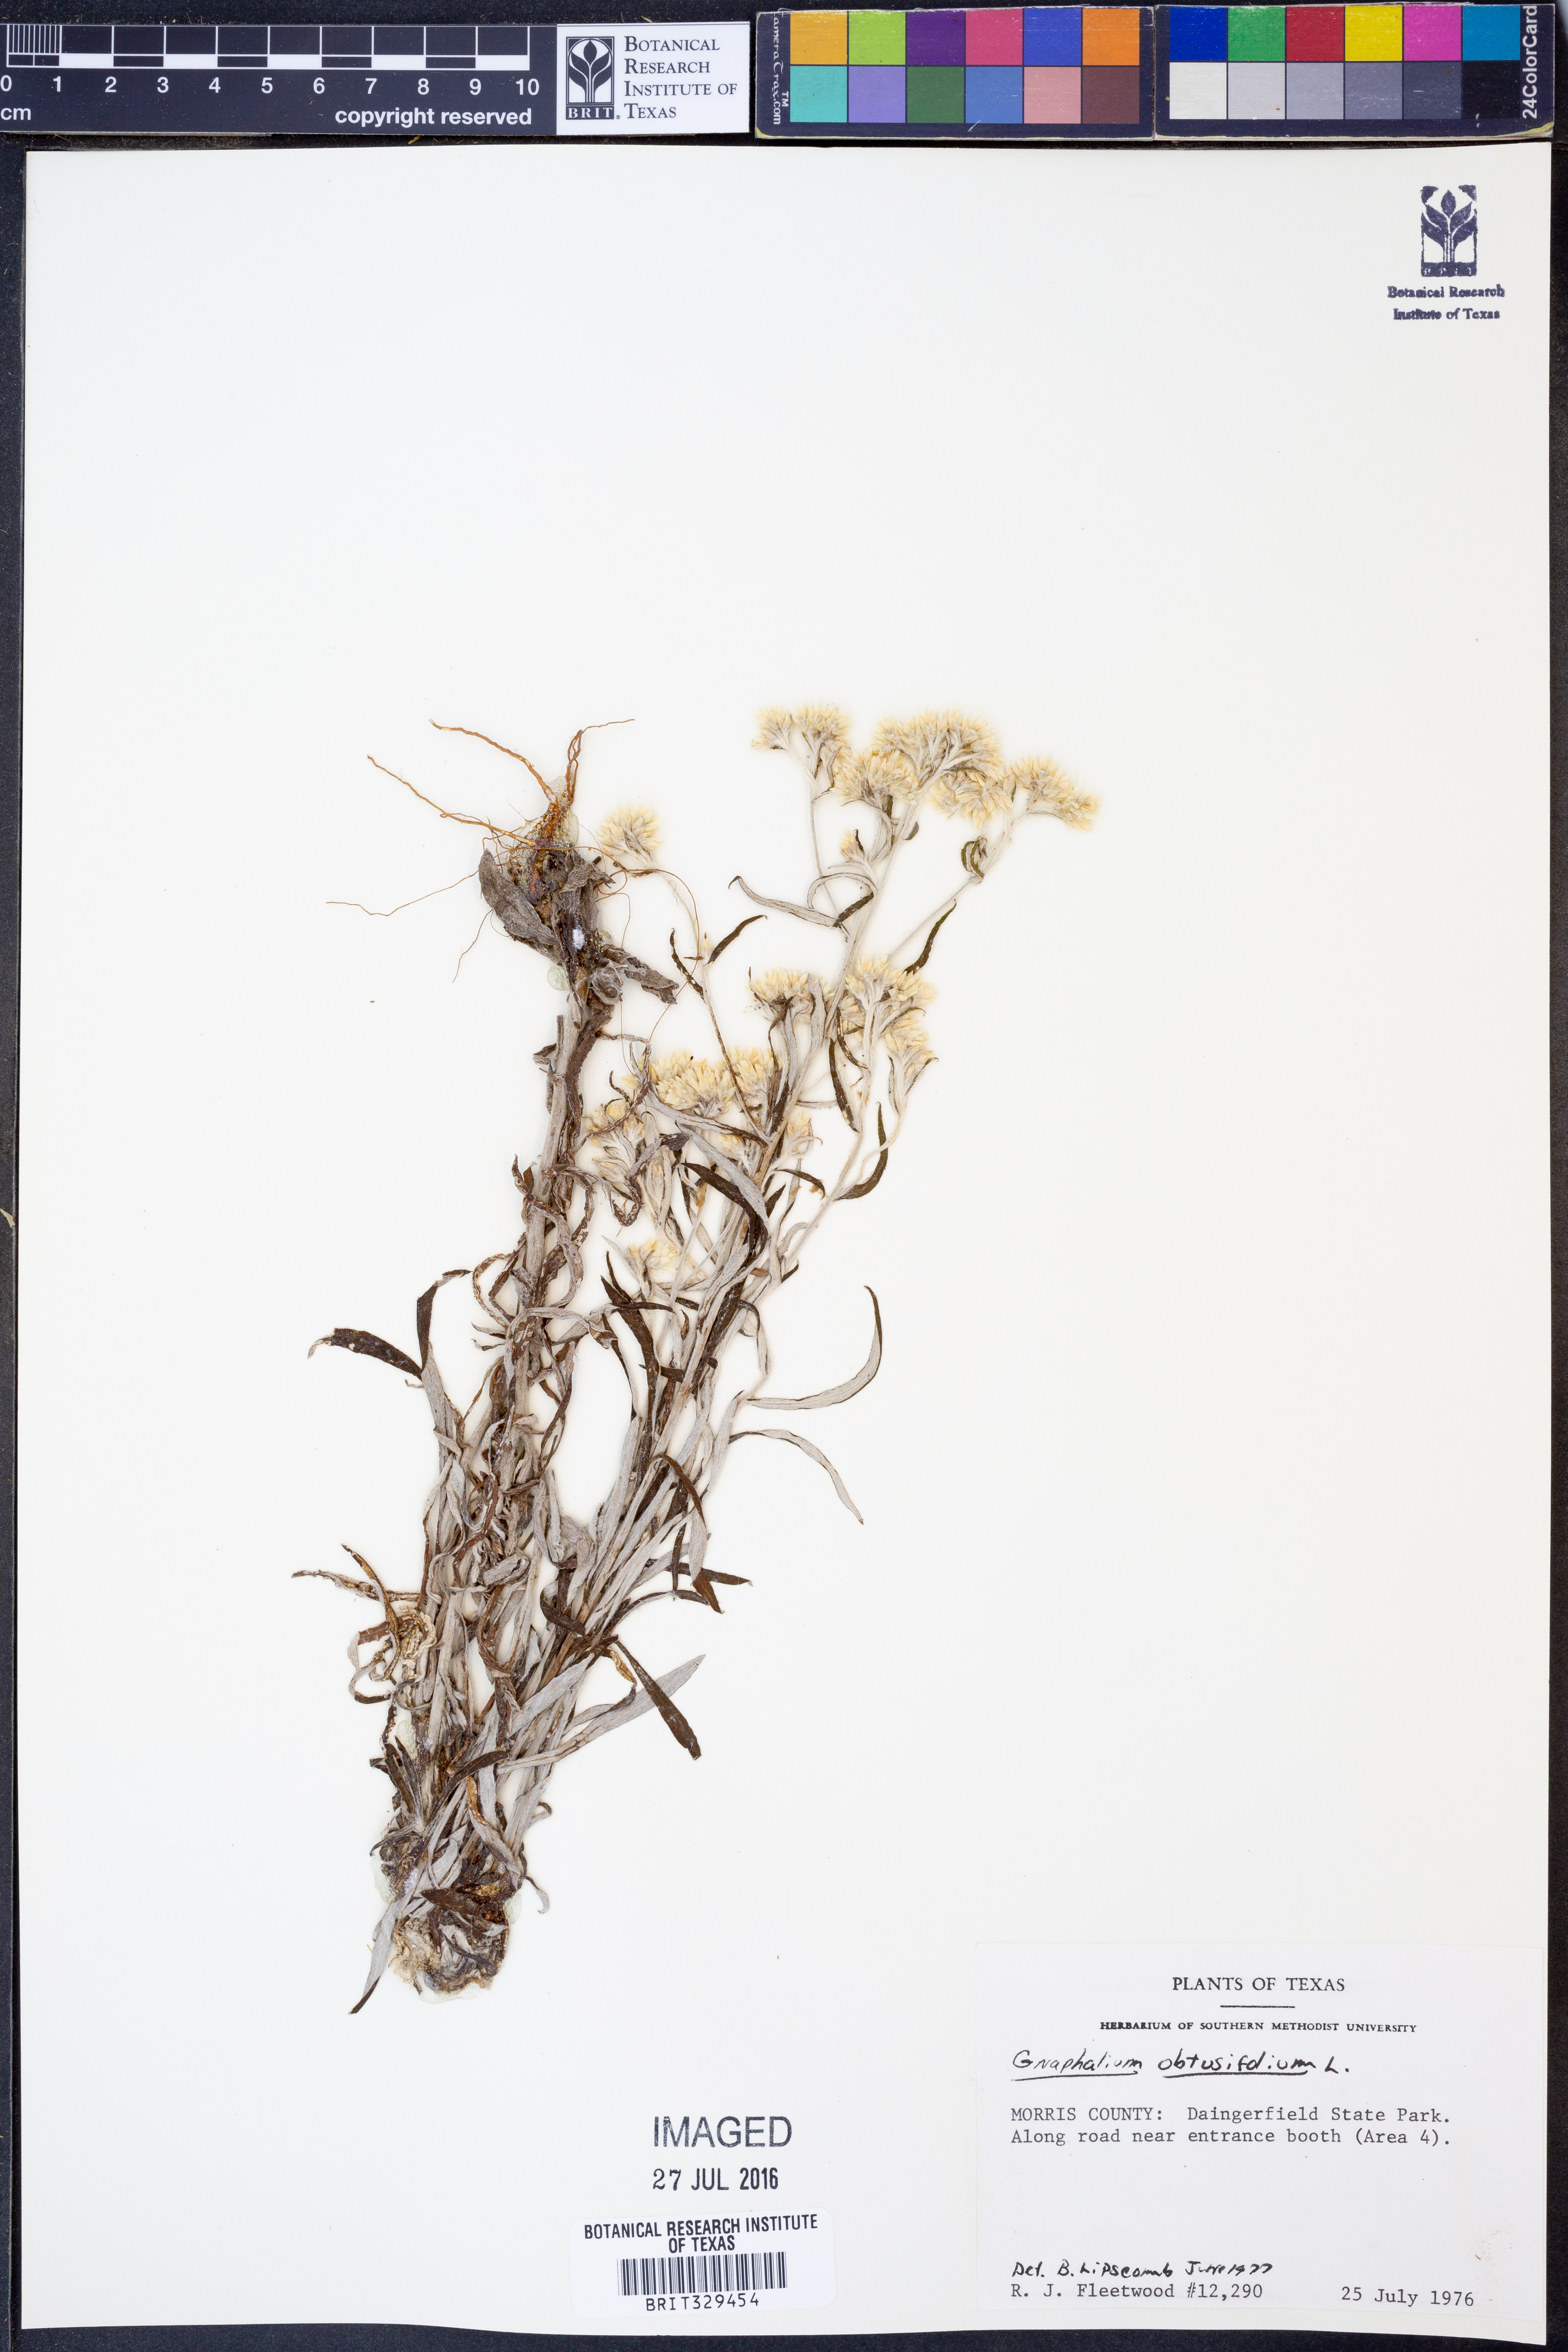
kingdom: Plantae
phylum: Tracheophyta
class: Magnoliopsida
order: Asterales
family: Asteraceae
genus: Pseudognaphalium
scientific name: Pseudognaphalium obtusifolium
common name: Eastern rabbit-tobacco
